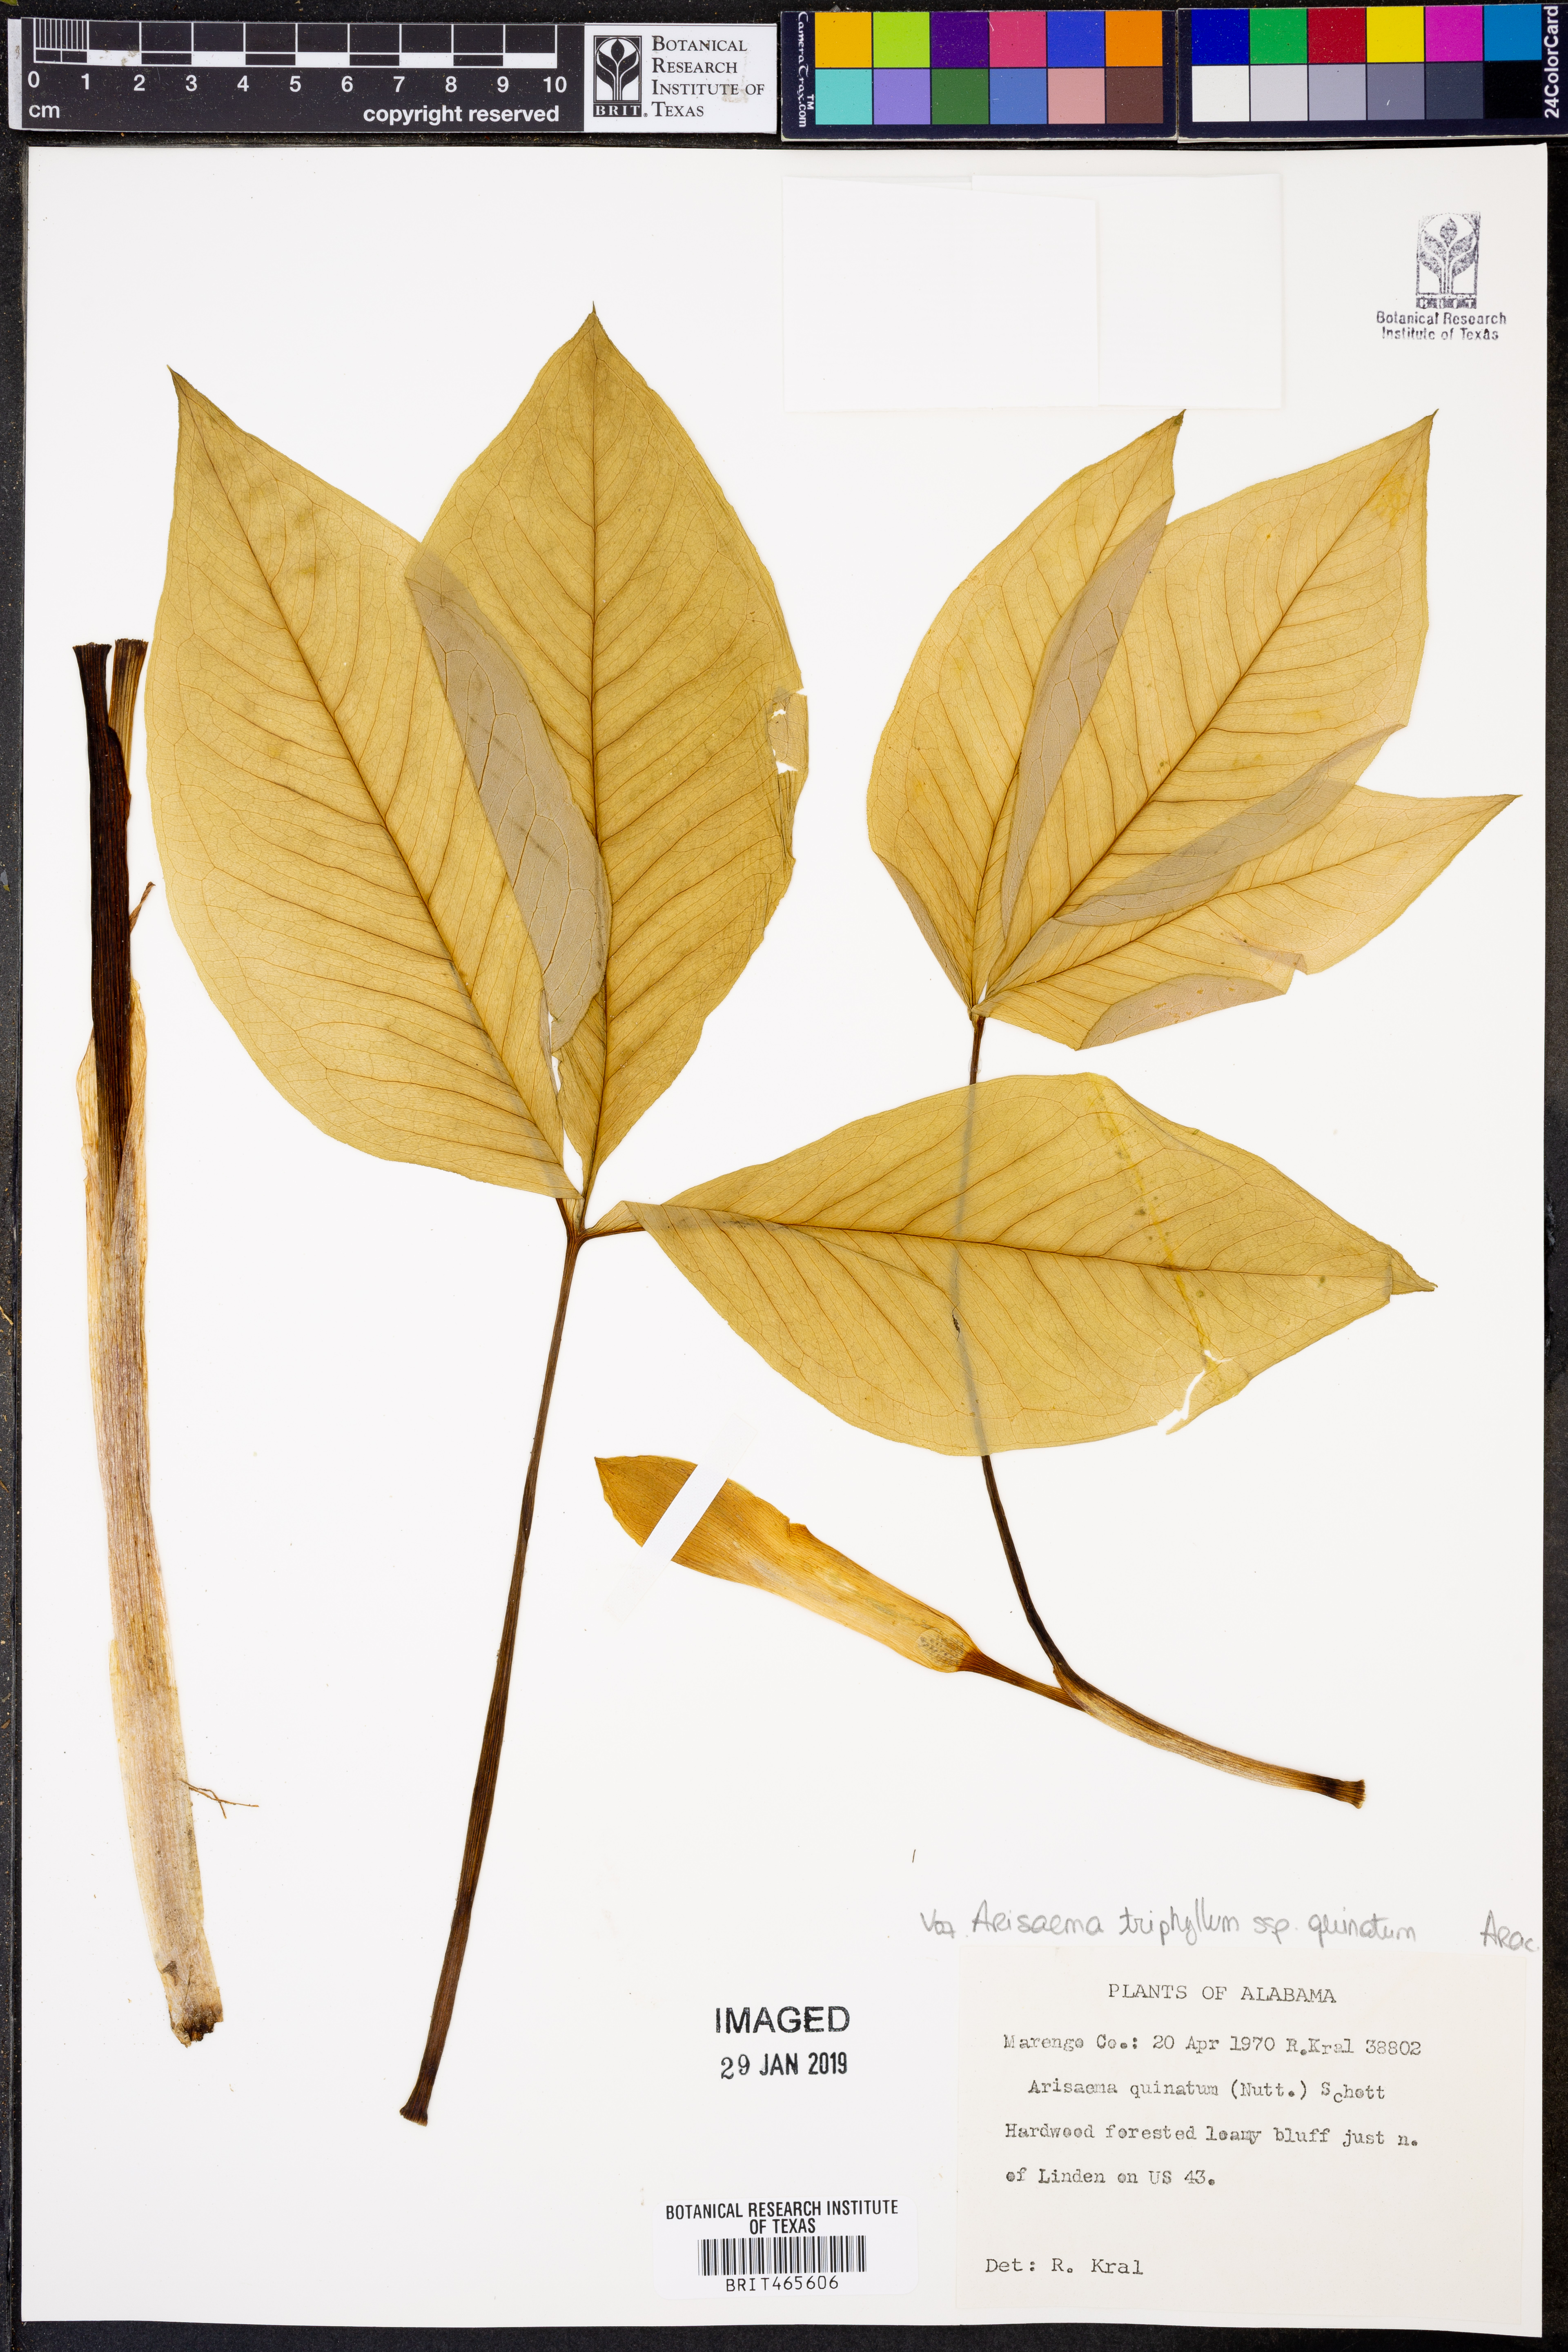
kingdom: Plantae
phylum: Tracheophyta
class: Liliopsida
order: Alismatales
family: Araceae
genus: Arisaema
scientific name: Arisaema quinatum
